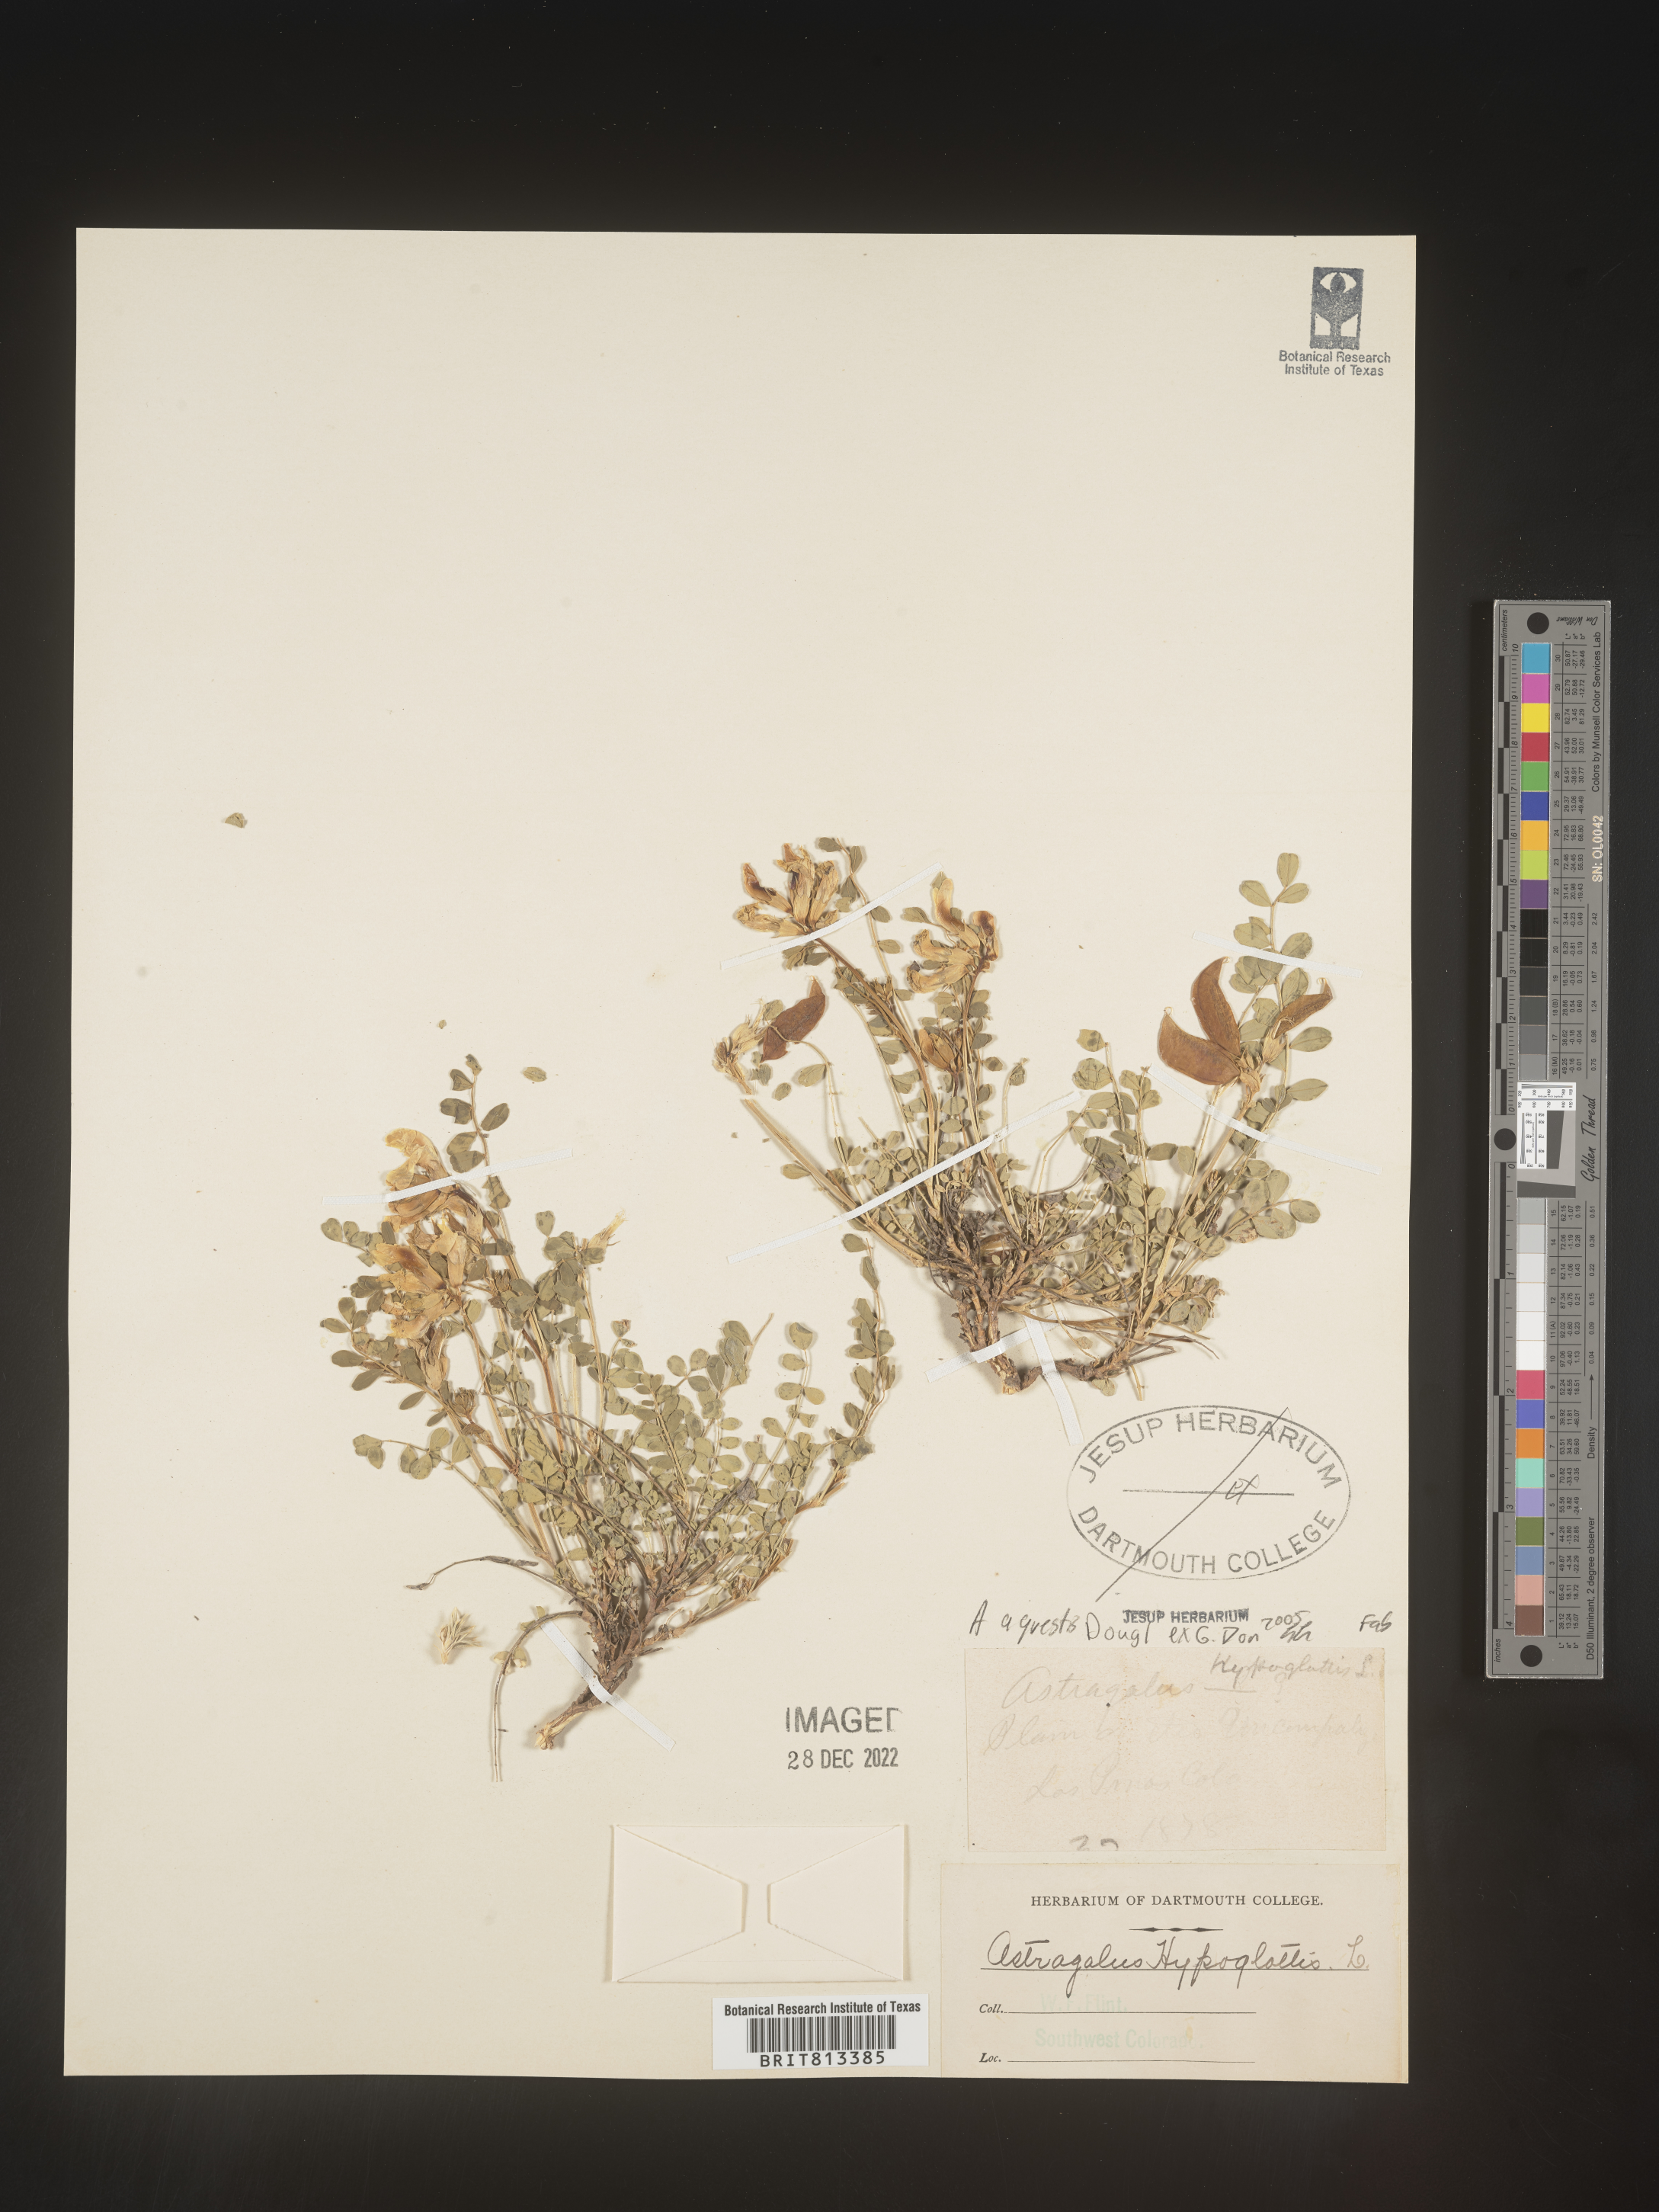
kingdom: Plantae
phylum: Tracheophyta
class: Magnoliopsida
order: Fabales
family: Fabaceae
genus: Astragalus
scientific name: Astragalus agrestis
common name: Field milk-vetch
